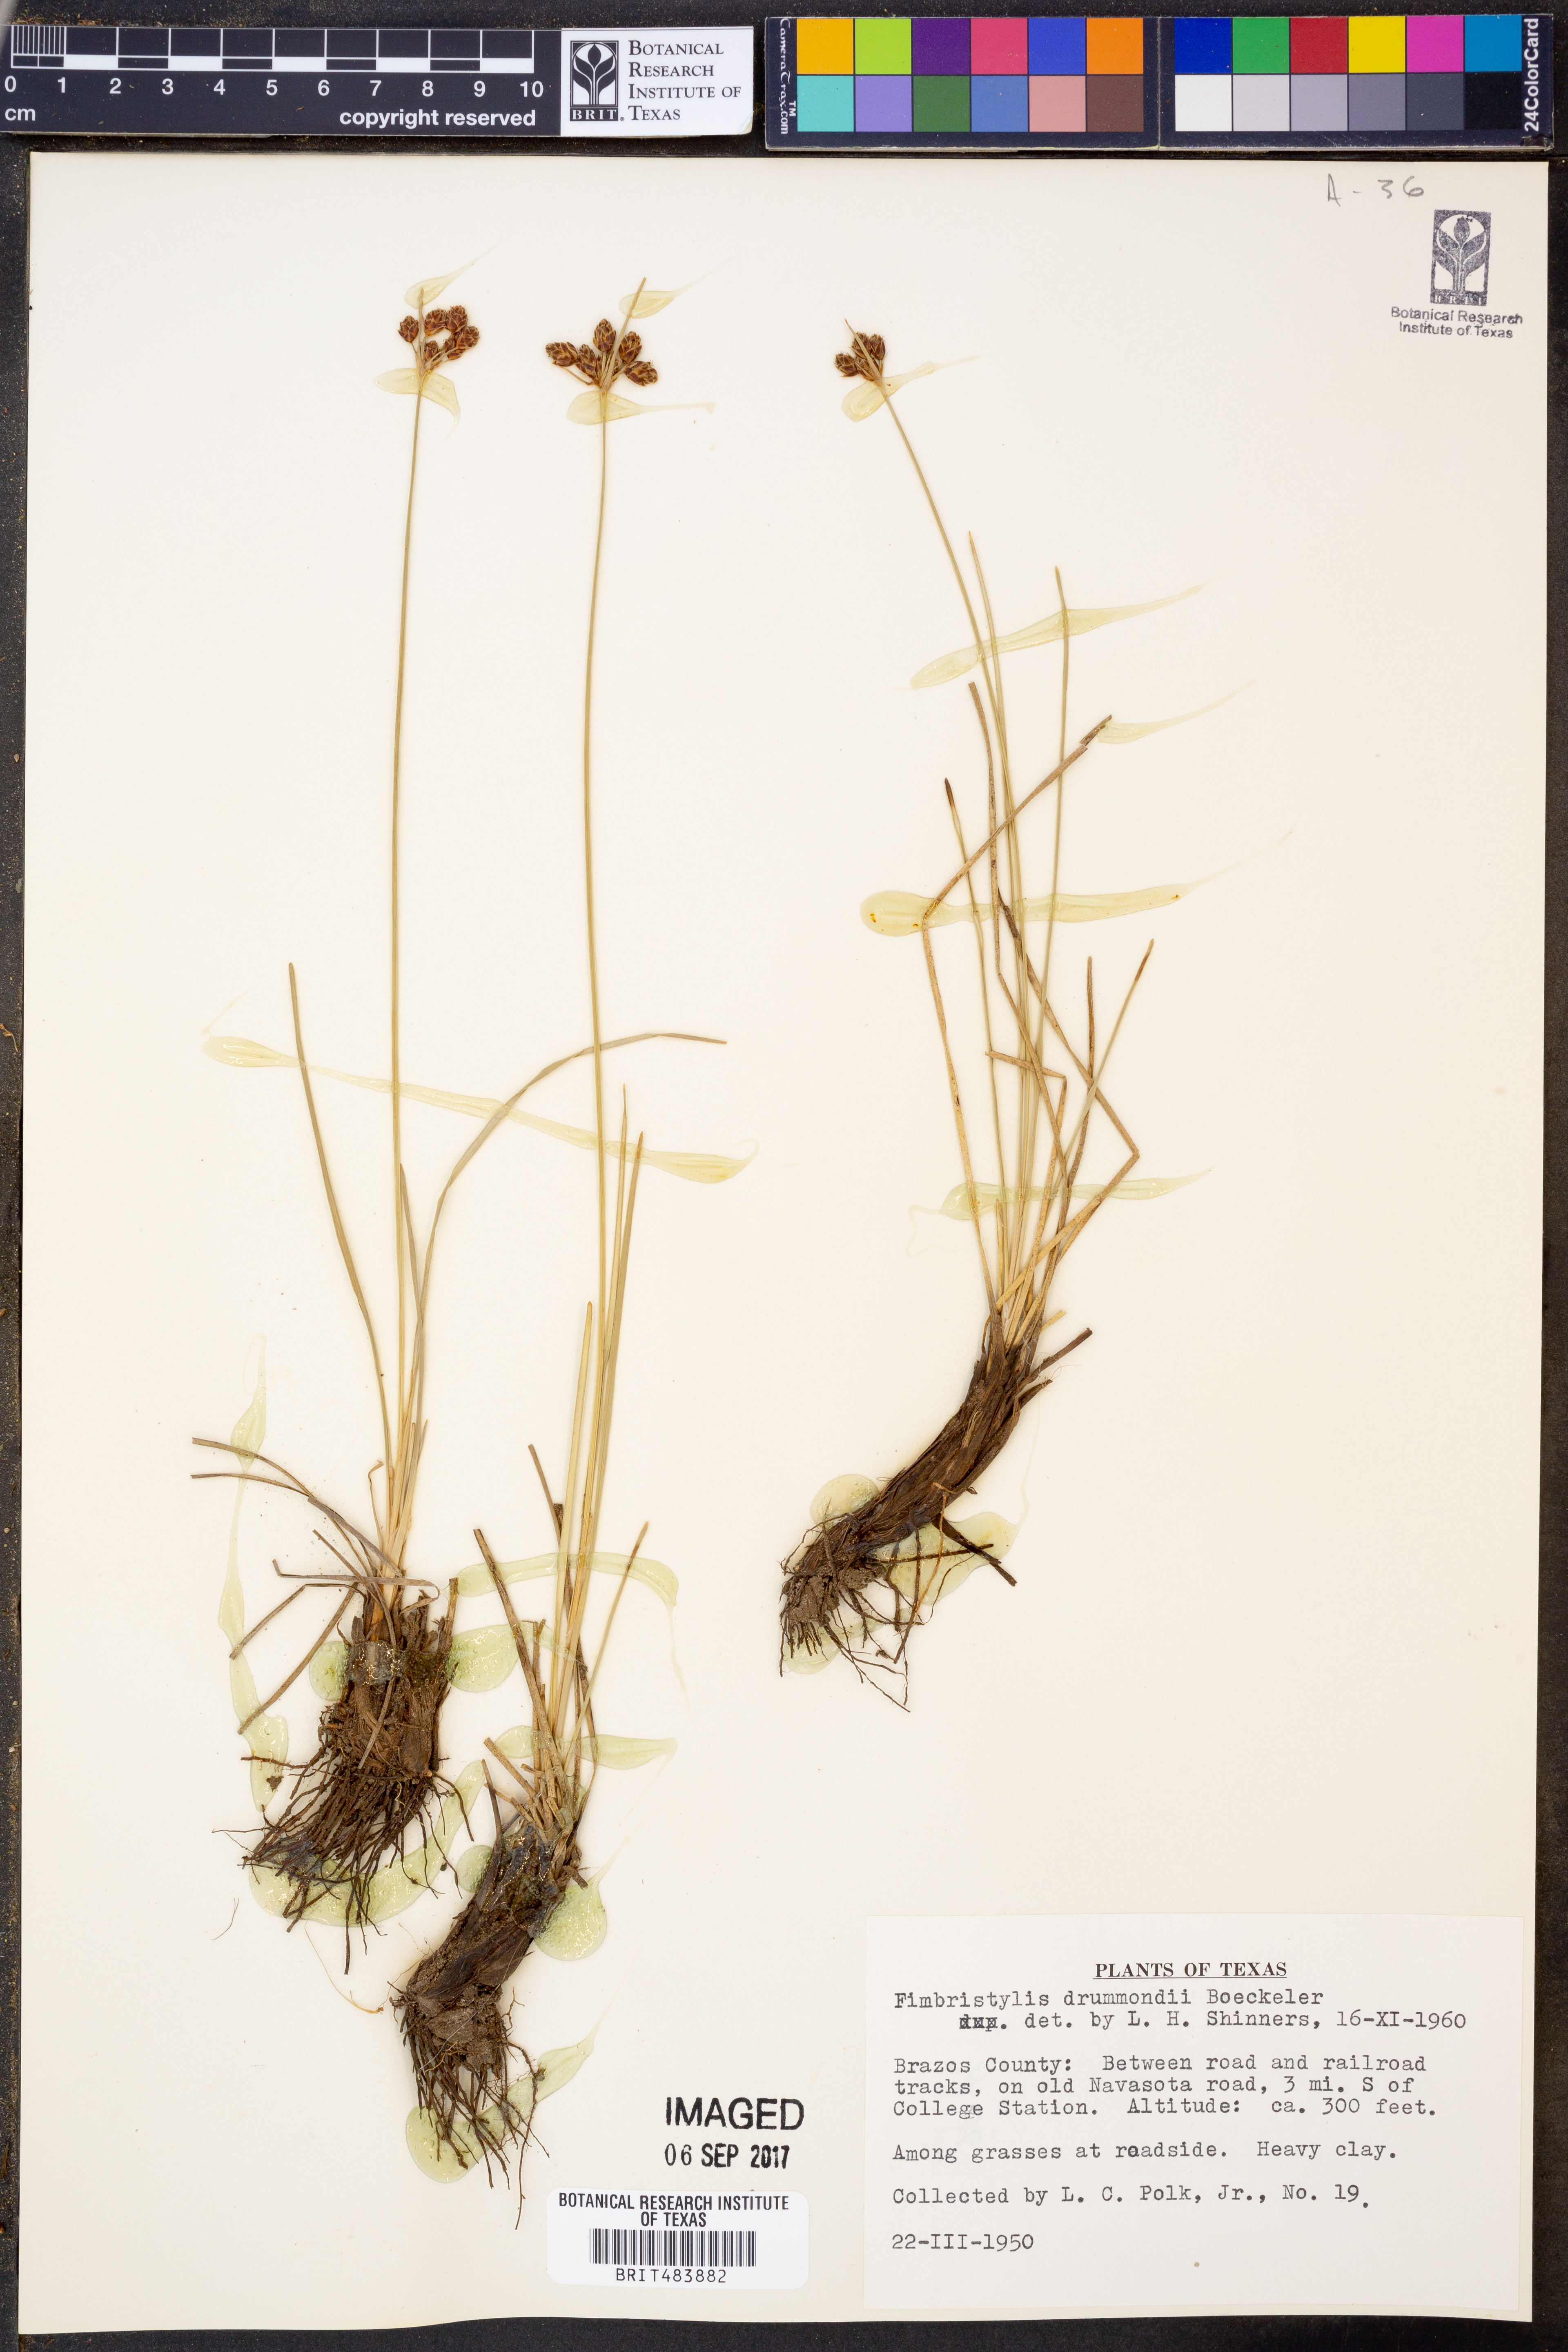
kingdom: Plantae
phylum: Tracheophyta
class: Liliopsida
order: Poales
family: Cyperaceae
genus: Fimbristylis
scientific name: Fimbristylis puberula
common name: Hairy fimbristylis
